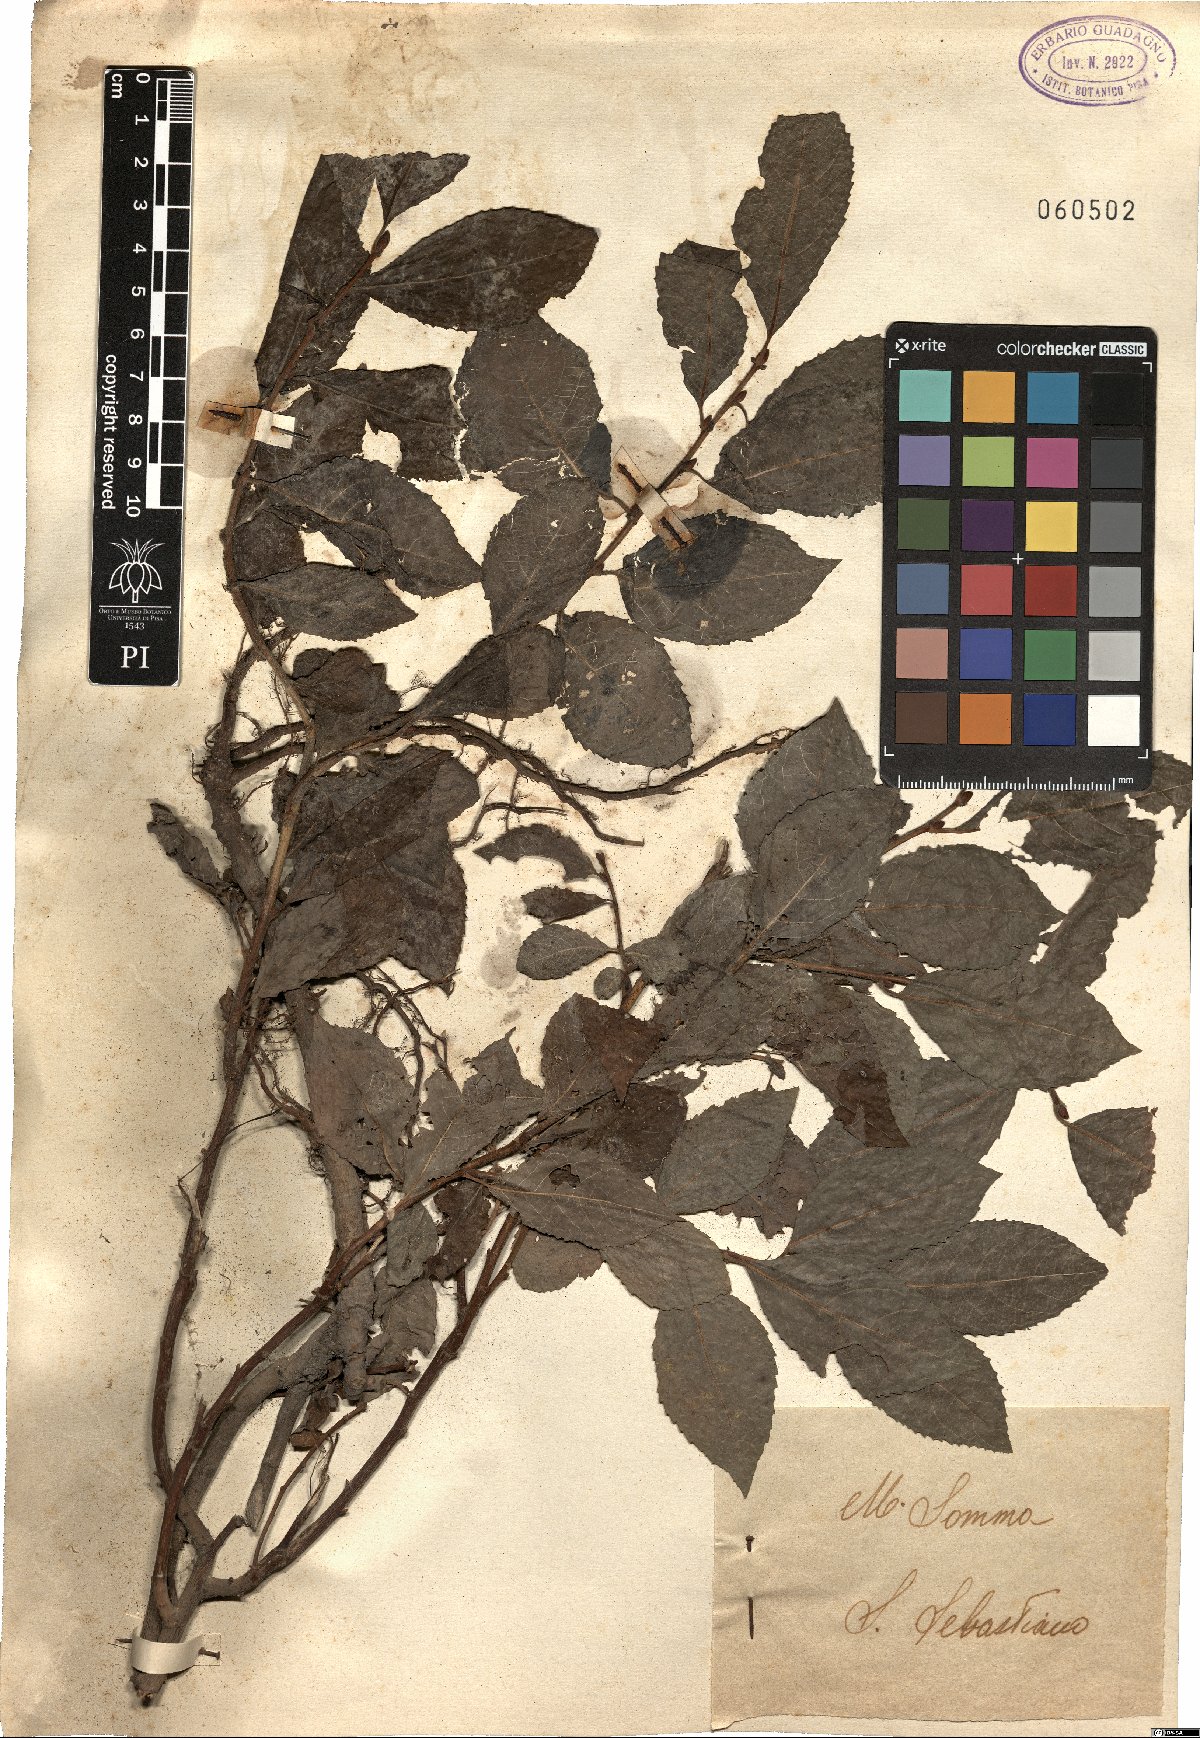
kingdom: Plantae
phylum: Tracheophyta
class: Magnoliopsida
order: Malpighiales
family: Salicaceae
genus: Salix
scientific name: Salix
